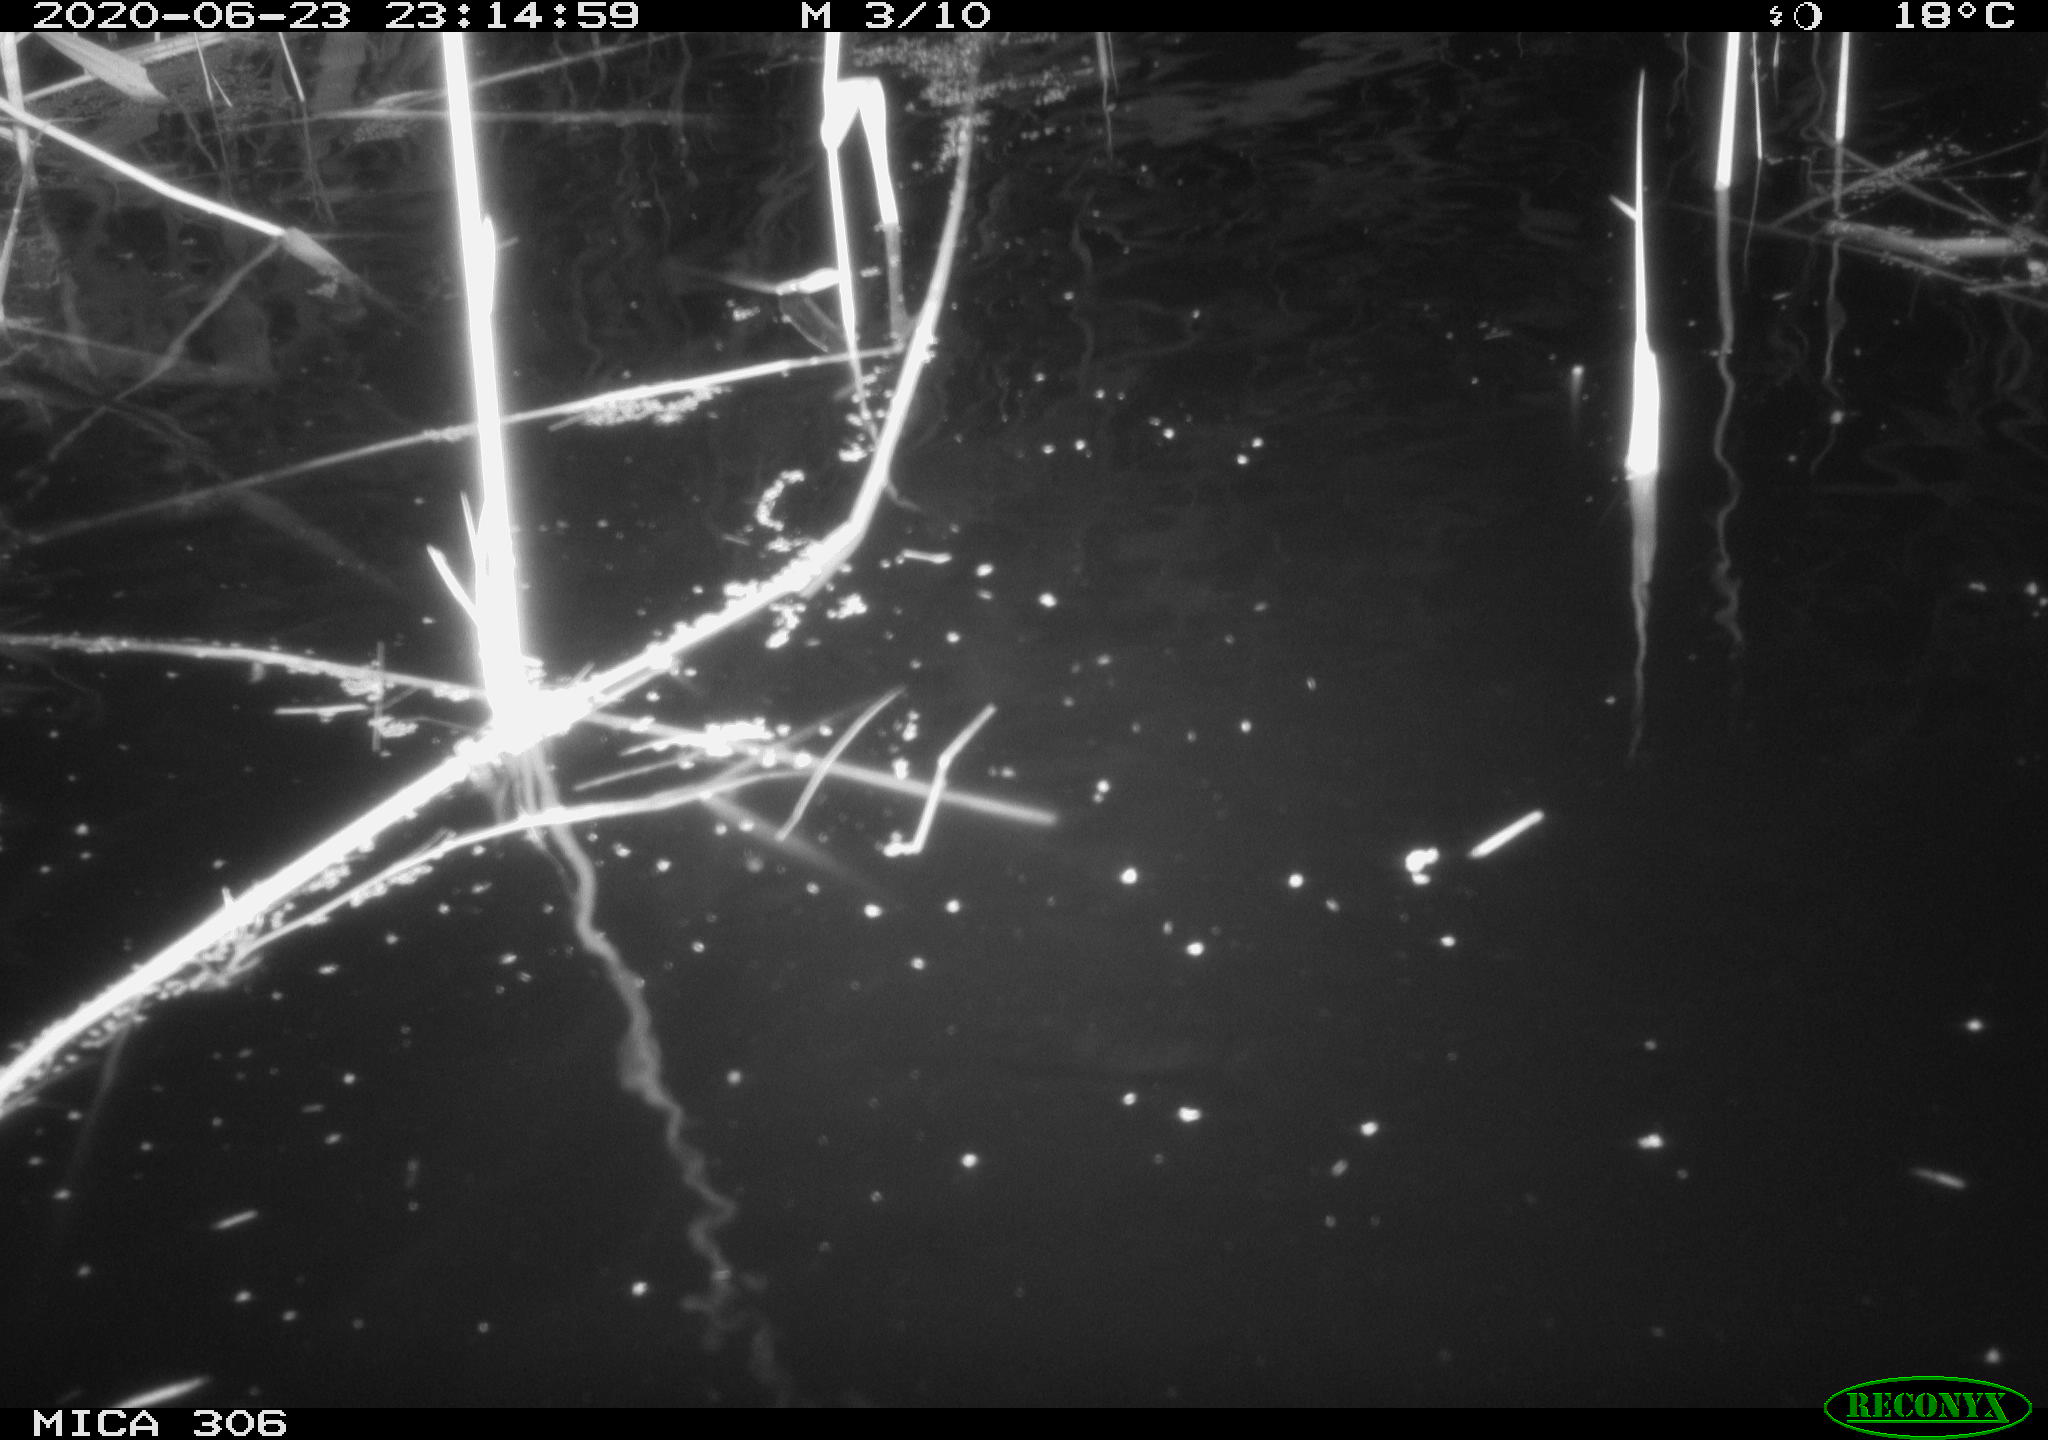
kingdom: Animalia
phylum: Chordata
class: Mammalia
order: Rodentia
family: Muridae
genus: Rattus
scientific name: Rattus norvegicus
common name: Brown rat
